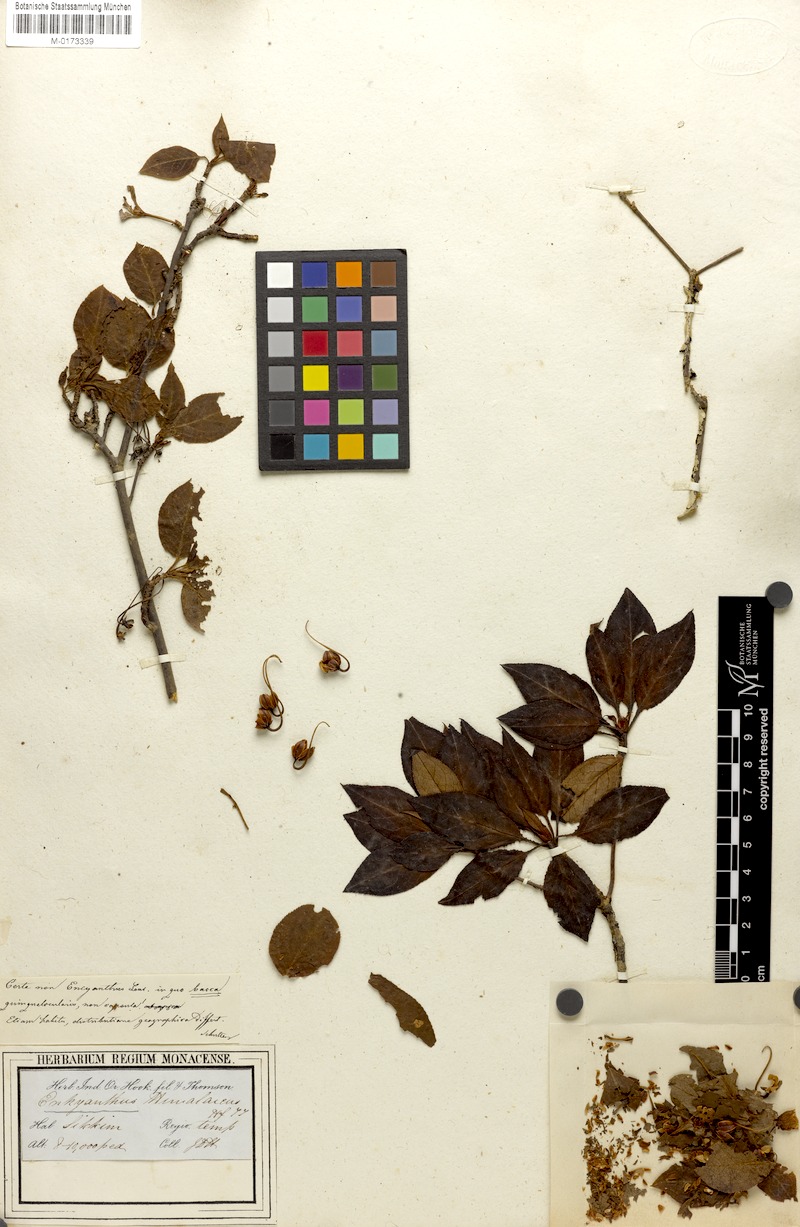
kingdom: Plantae
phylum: Tracheophyta
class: Magnoliopsida
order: Ericales
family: Ericaceae
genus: Enkianthus
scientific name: Enkianthus deflexus
